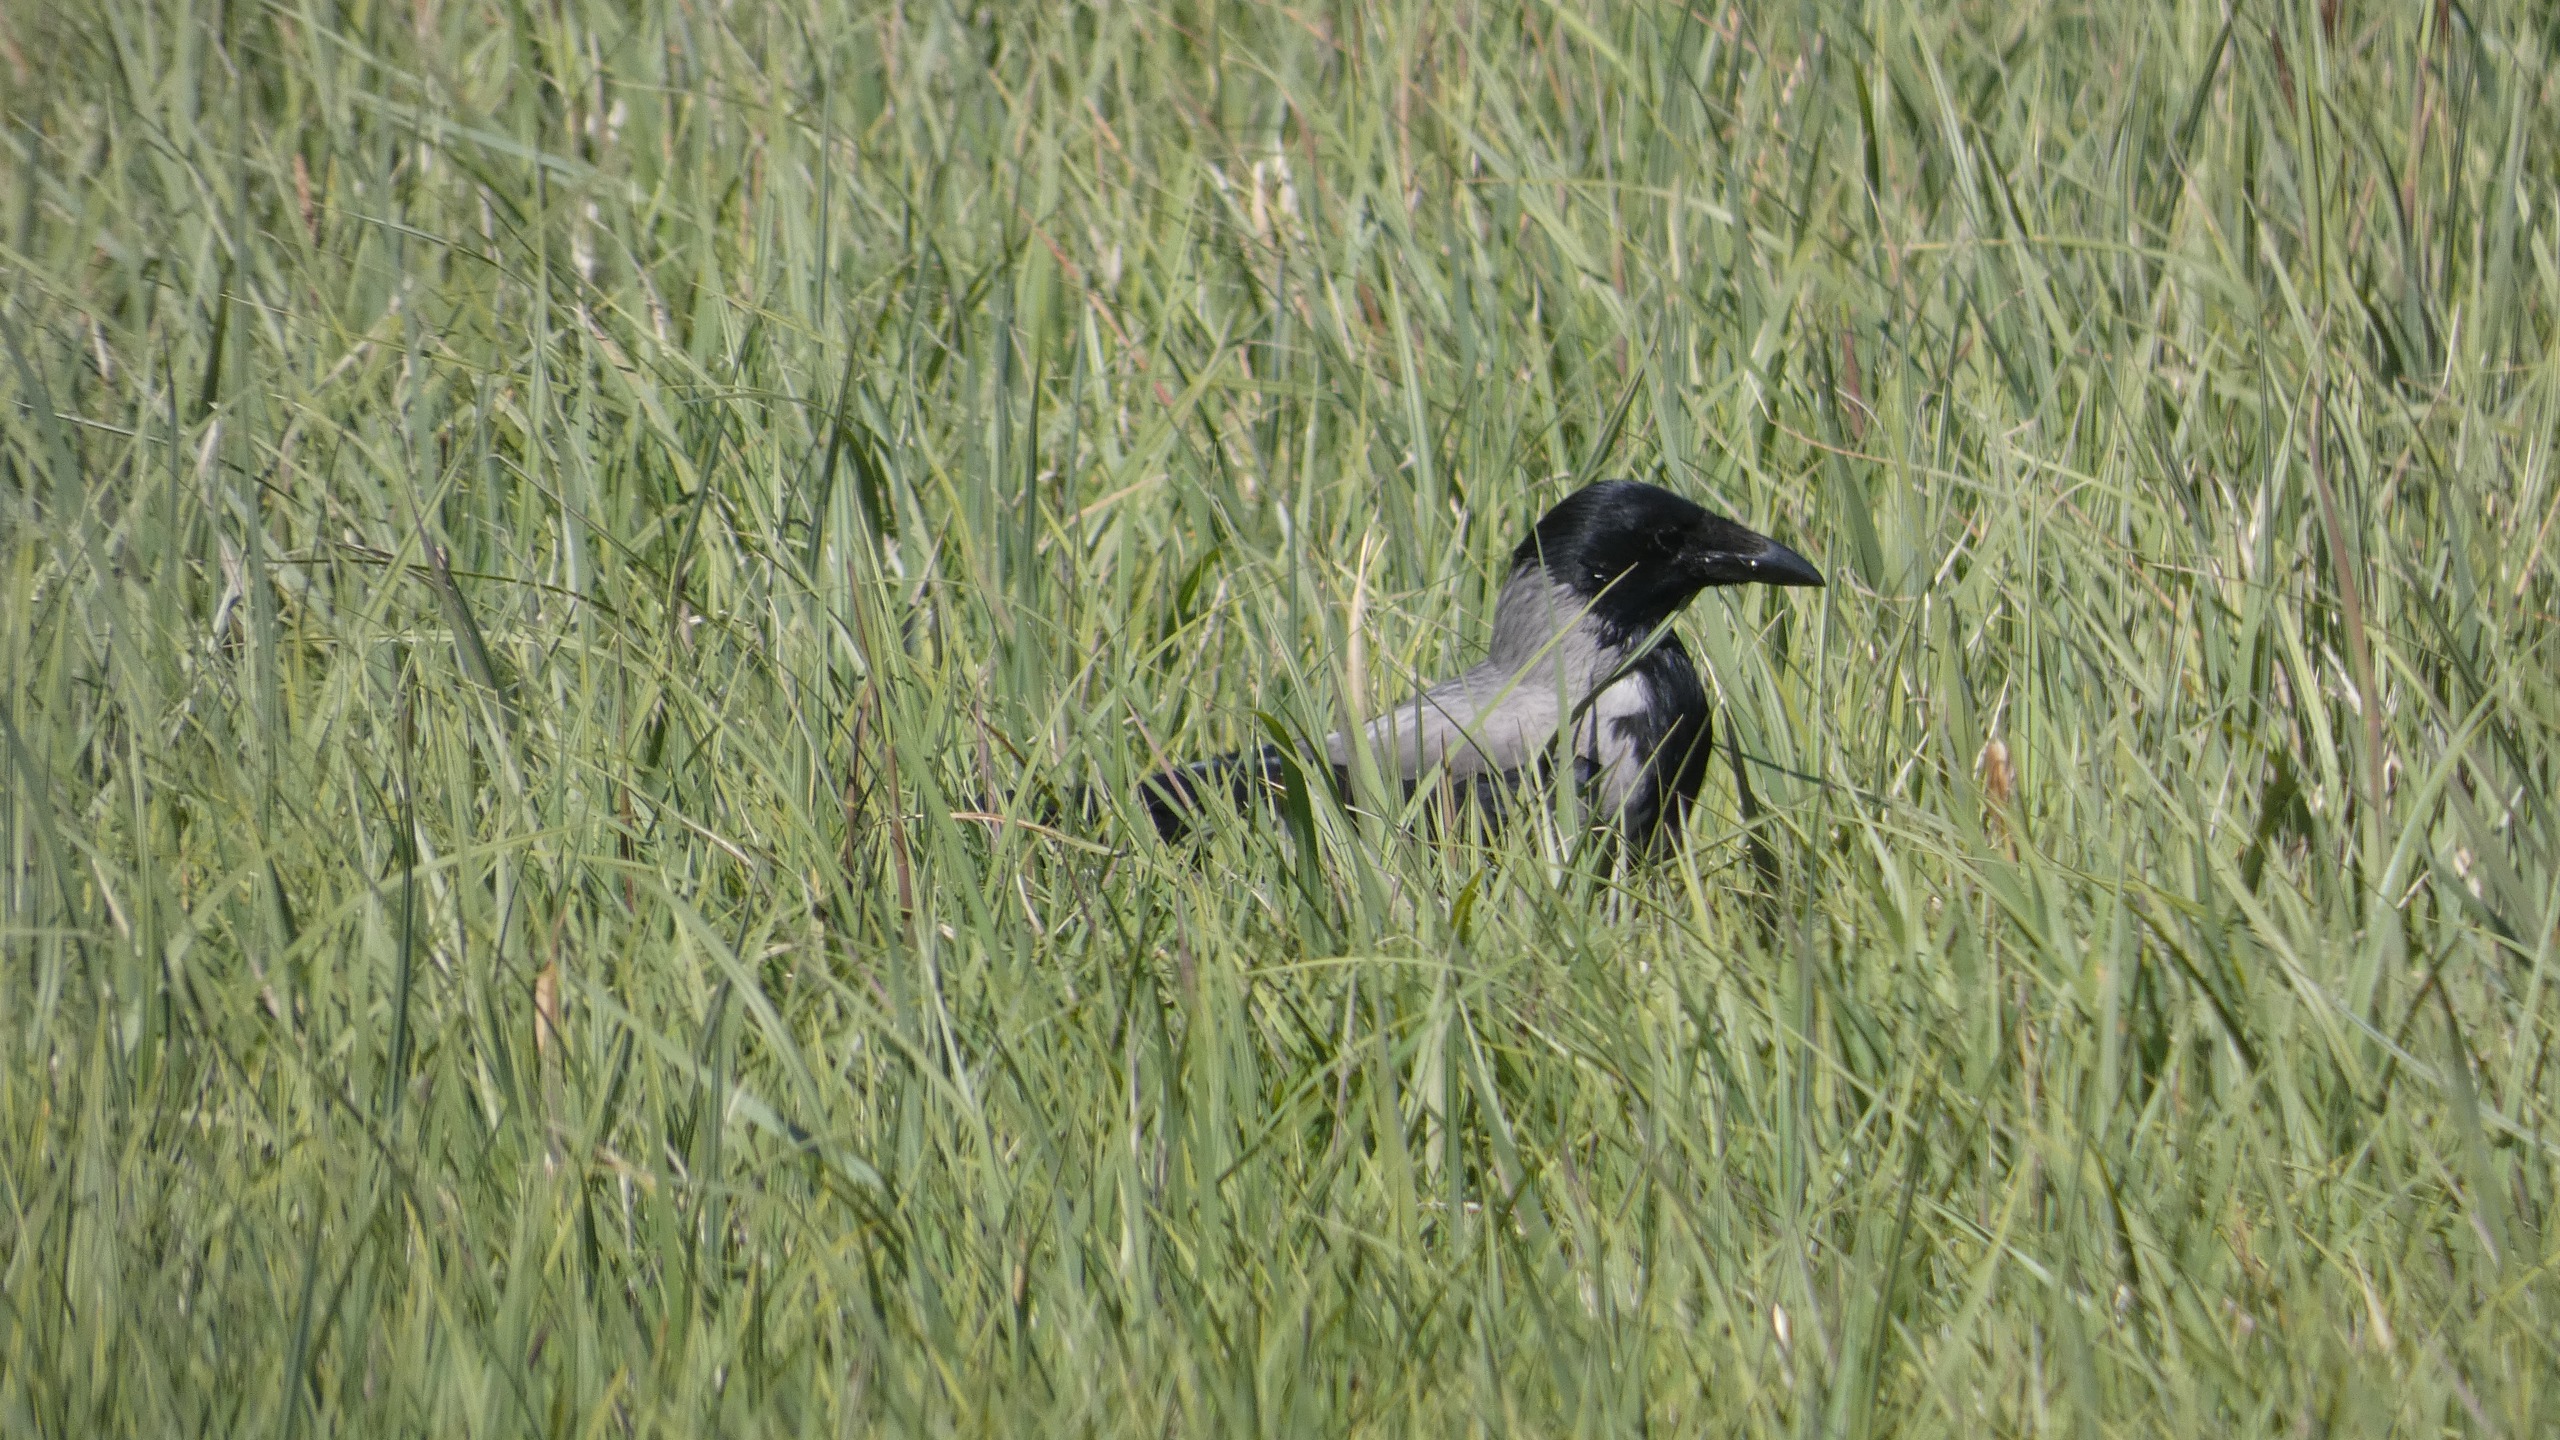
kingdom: Animalia
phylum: Chordata
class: Aves
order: Passeriformes
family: Corvidae
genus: Corvus
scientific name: Corvus cornix
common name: Gråkrage
